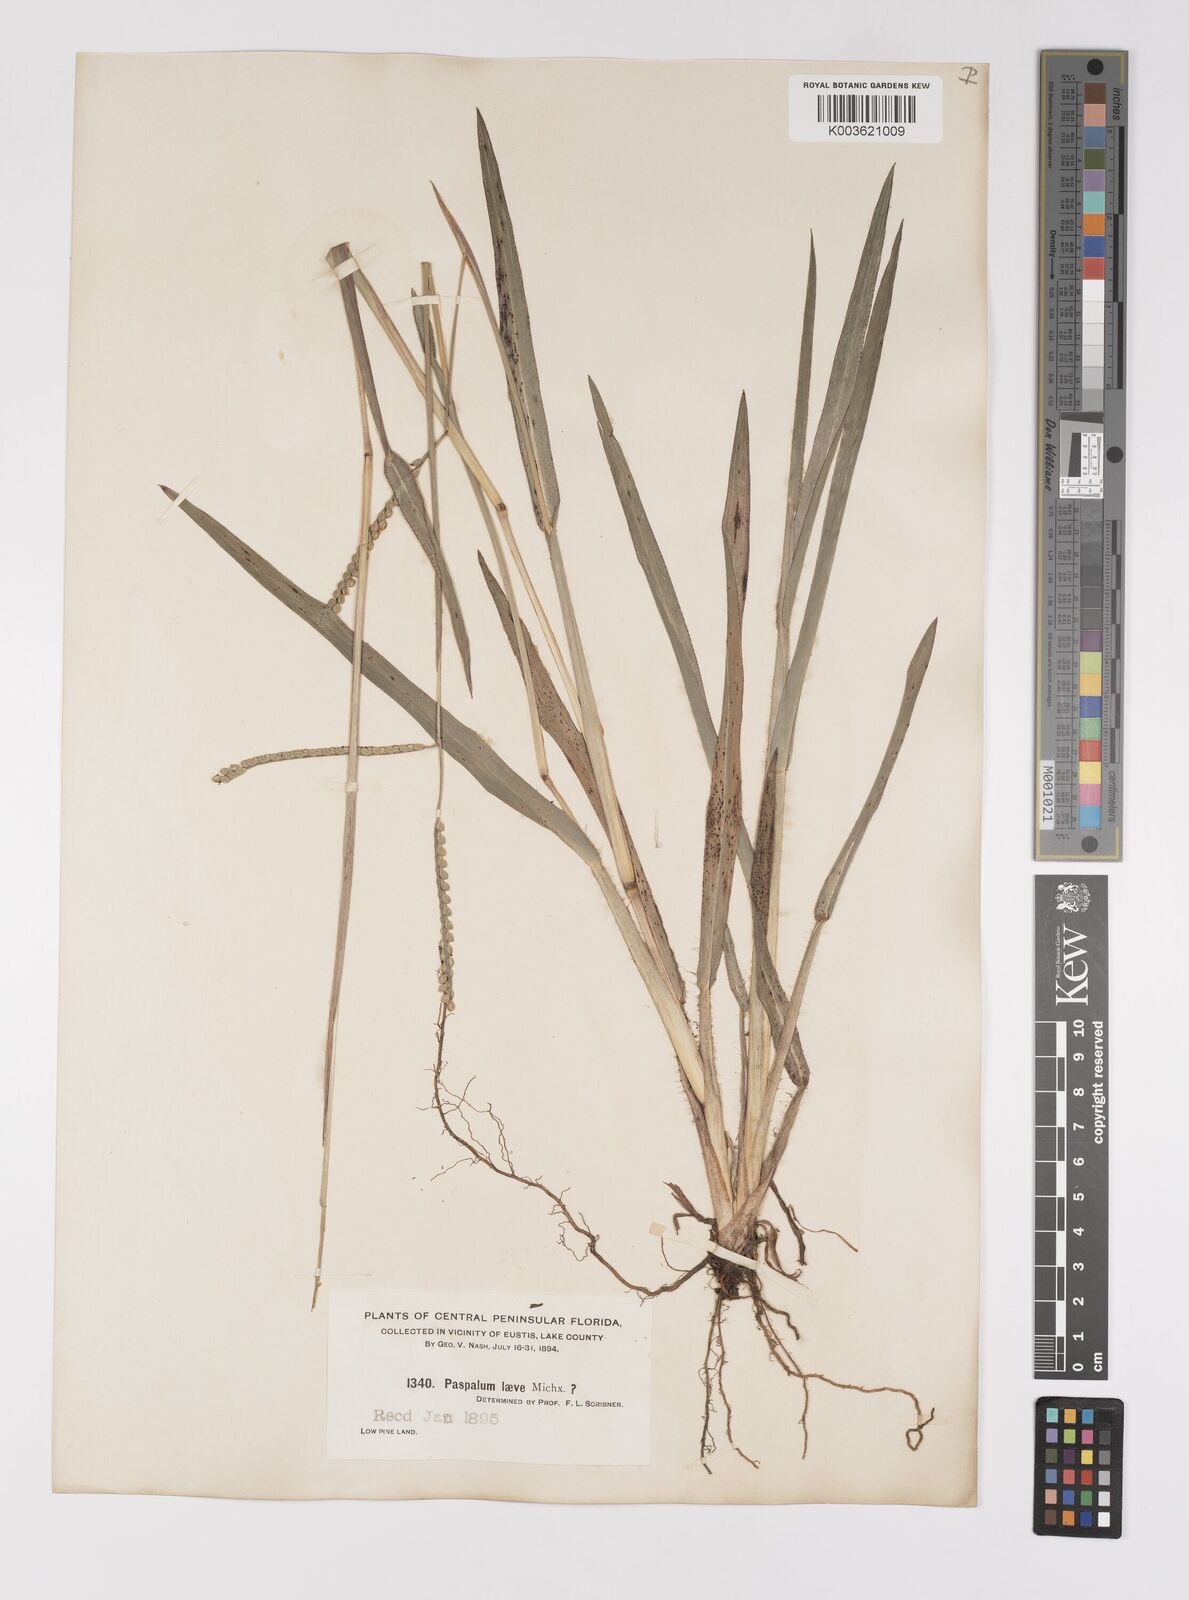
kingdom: Plantae
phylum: Tracheophyta
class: Liliopsida
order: Poales
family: Poaceae
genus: Paspalum
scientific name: Paspalum laeve
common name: Field paspalum
